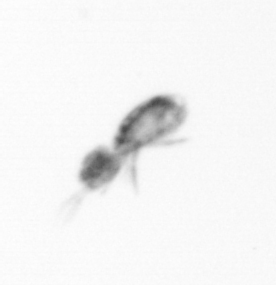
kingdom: Animalia
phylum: Arthropoda
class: Copepoda
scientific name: Copepoda
